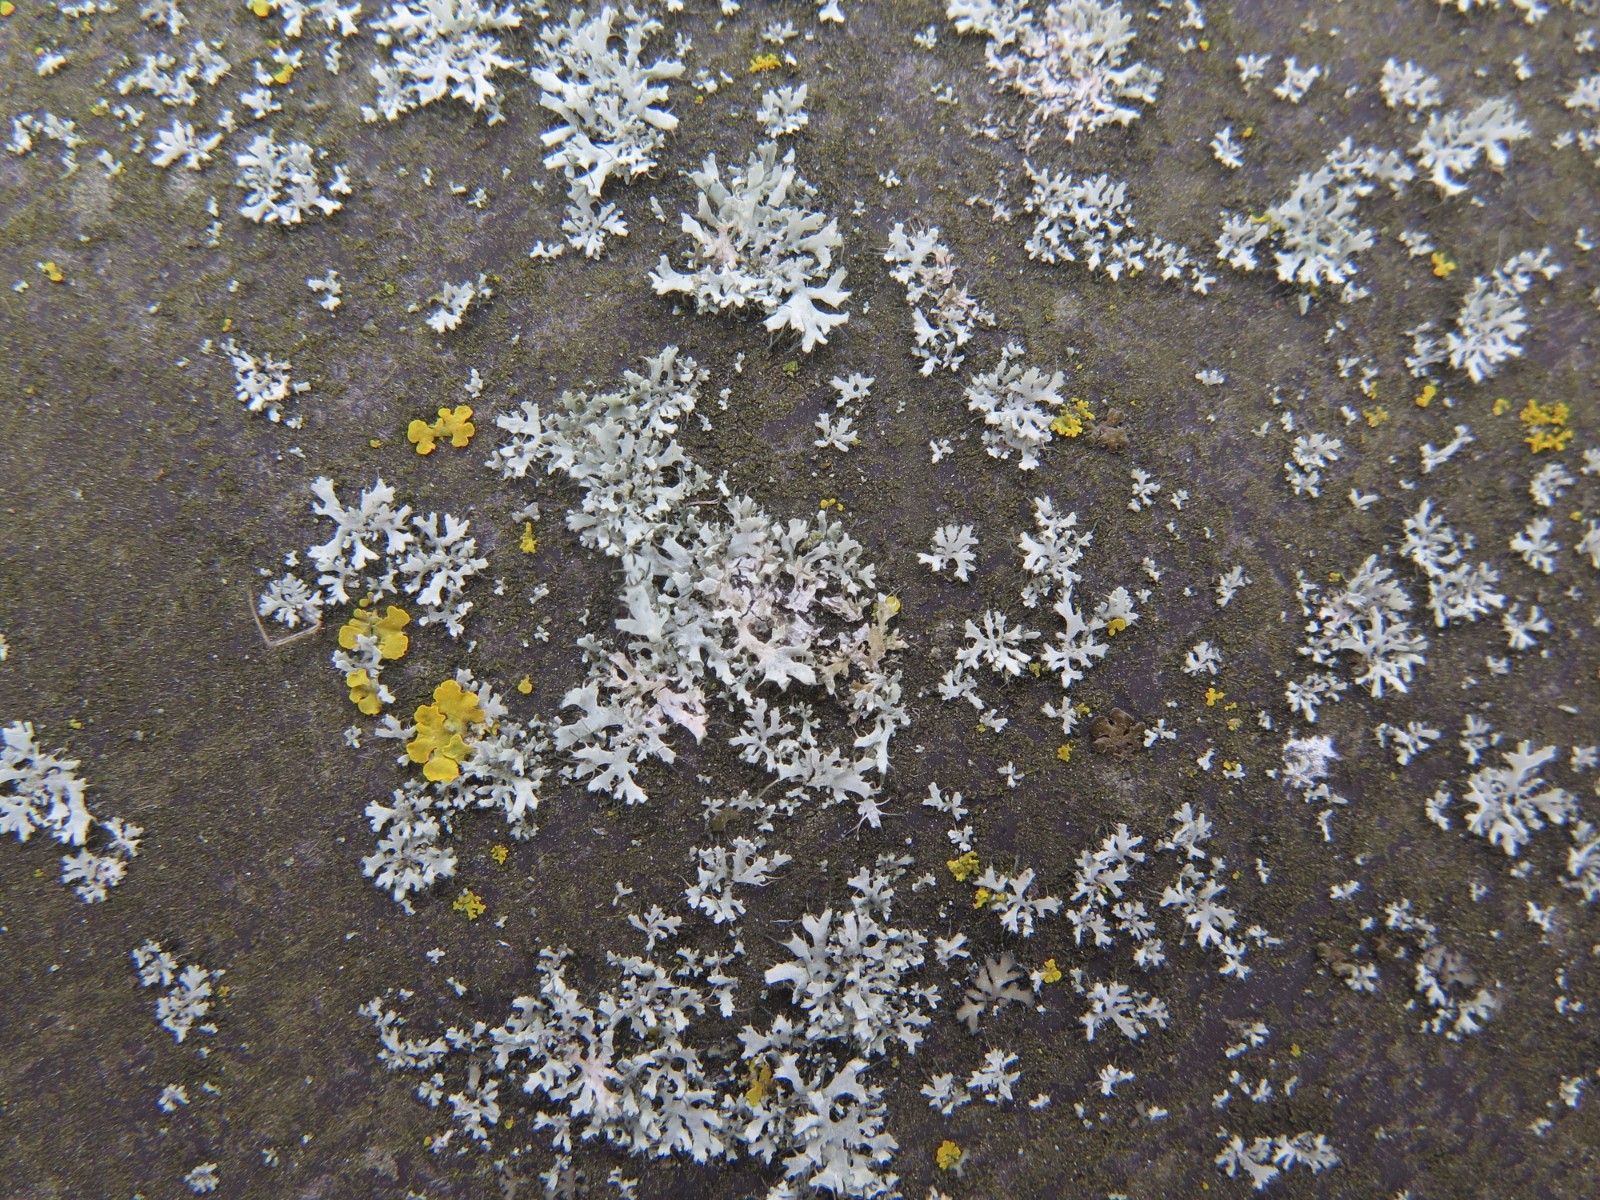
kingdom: Fungi
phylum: Ascomycota
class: Lecanoromycetes
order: Caliciales
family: Physciaceae
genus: Physcia
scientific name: Physcia tenella
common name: spæd rosetlav
